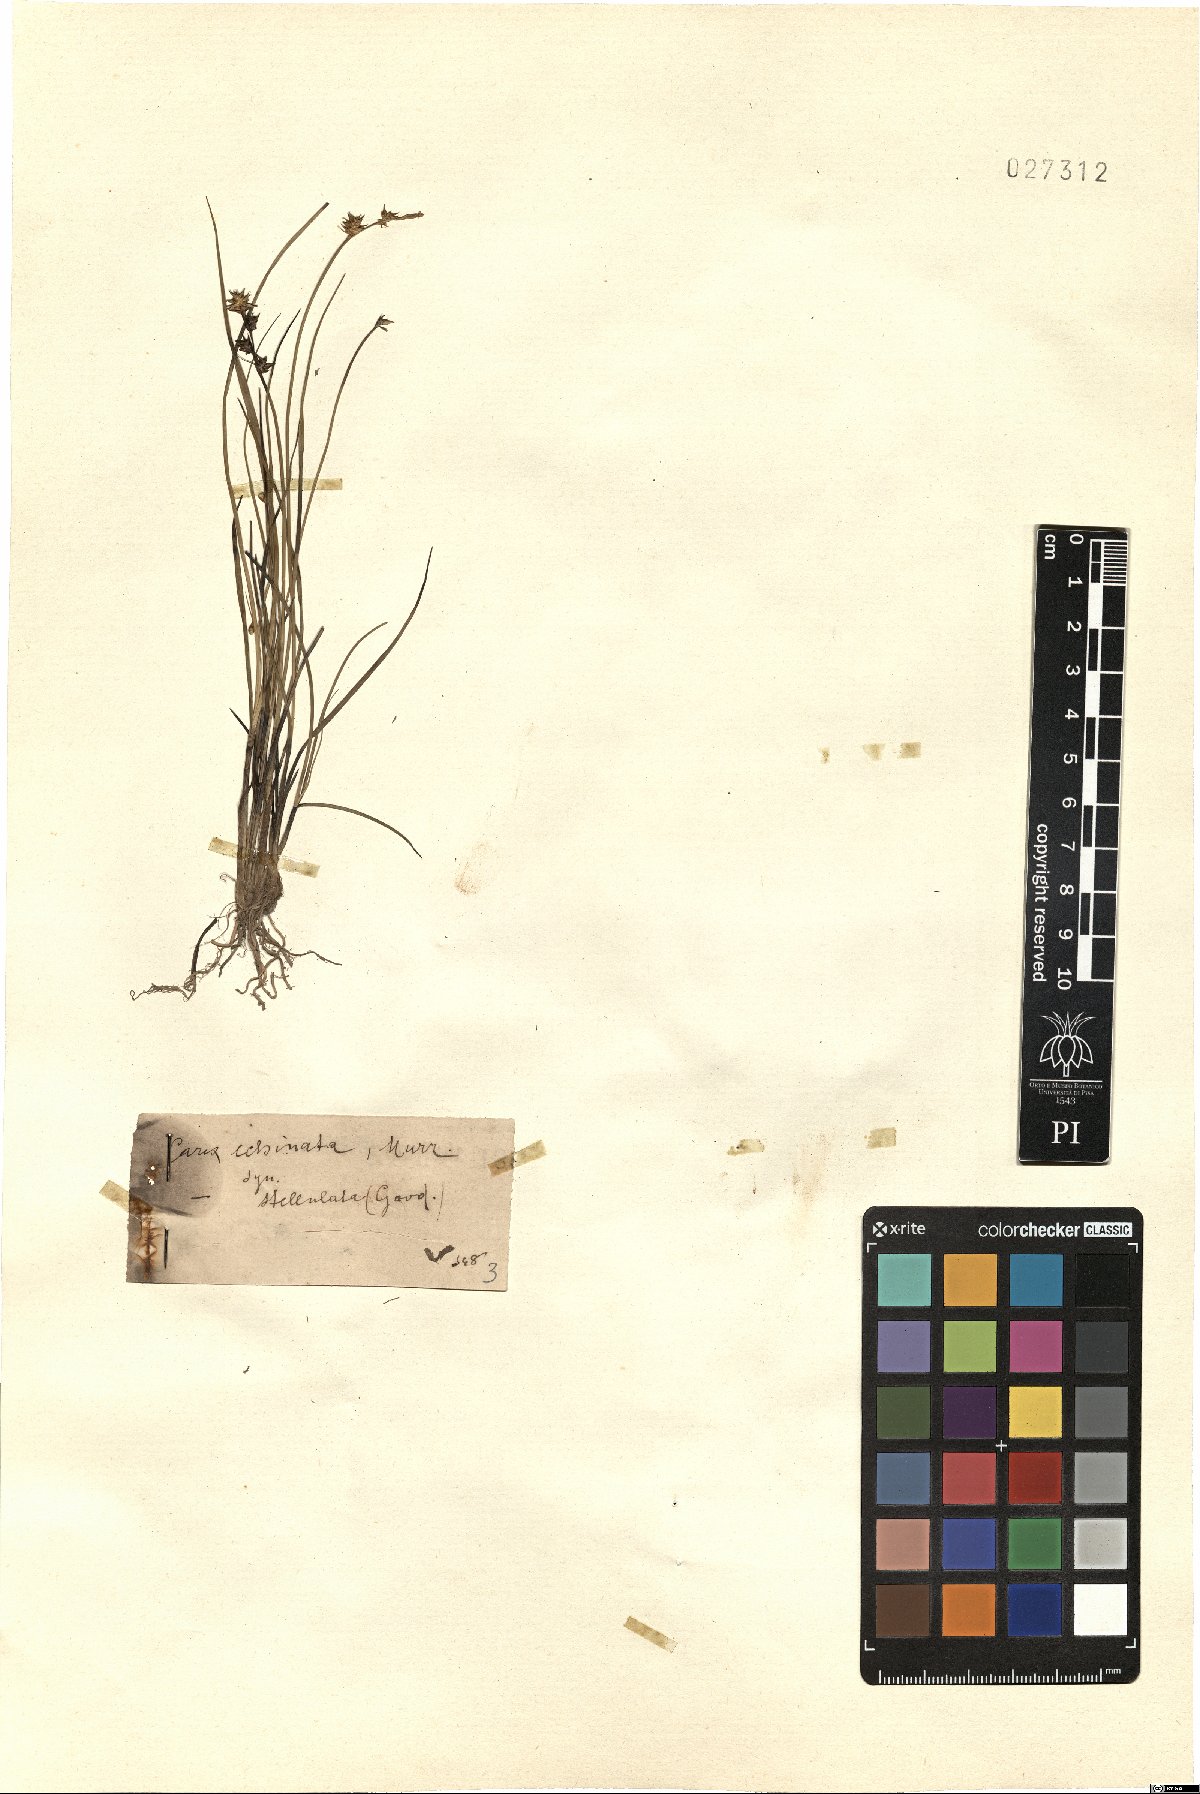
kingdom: Plantae
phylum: Tracheophyta
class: Liliopsida
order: Poales
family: Cyperaceae
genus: Carex
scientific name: Carex echinata
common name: Star sedge
